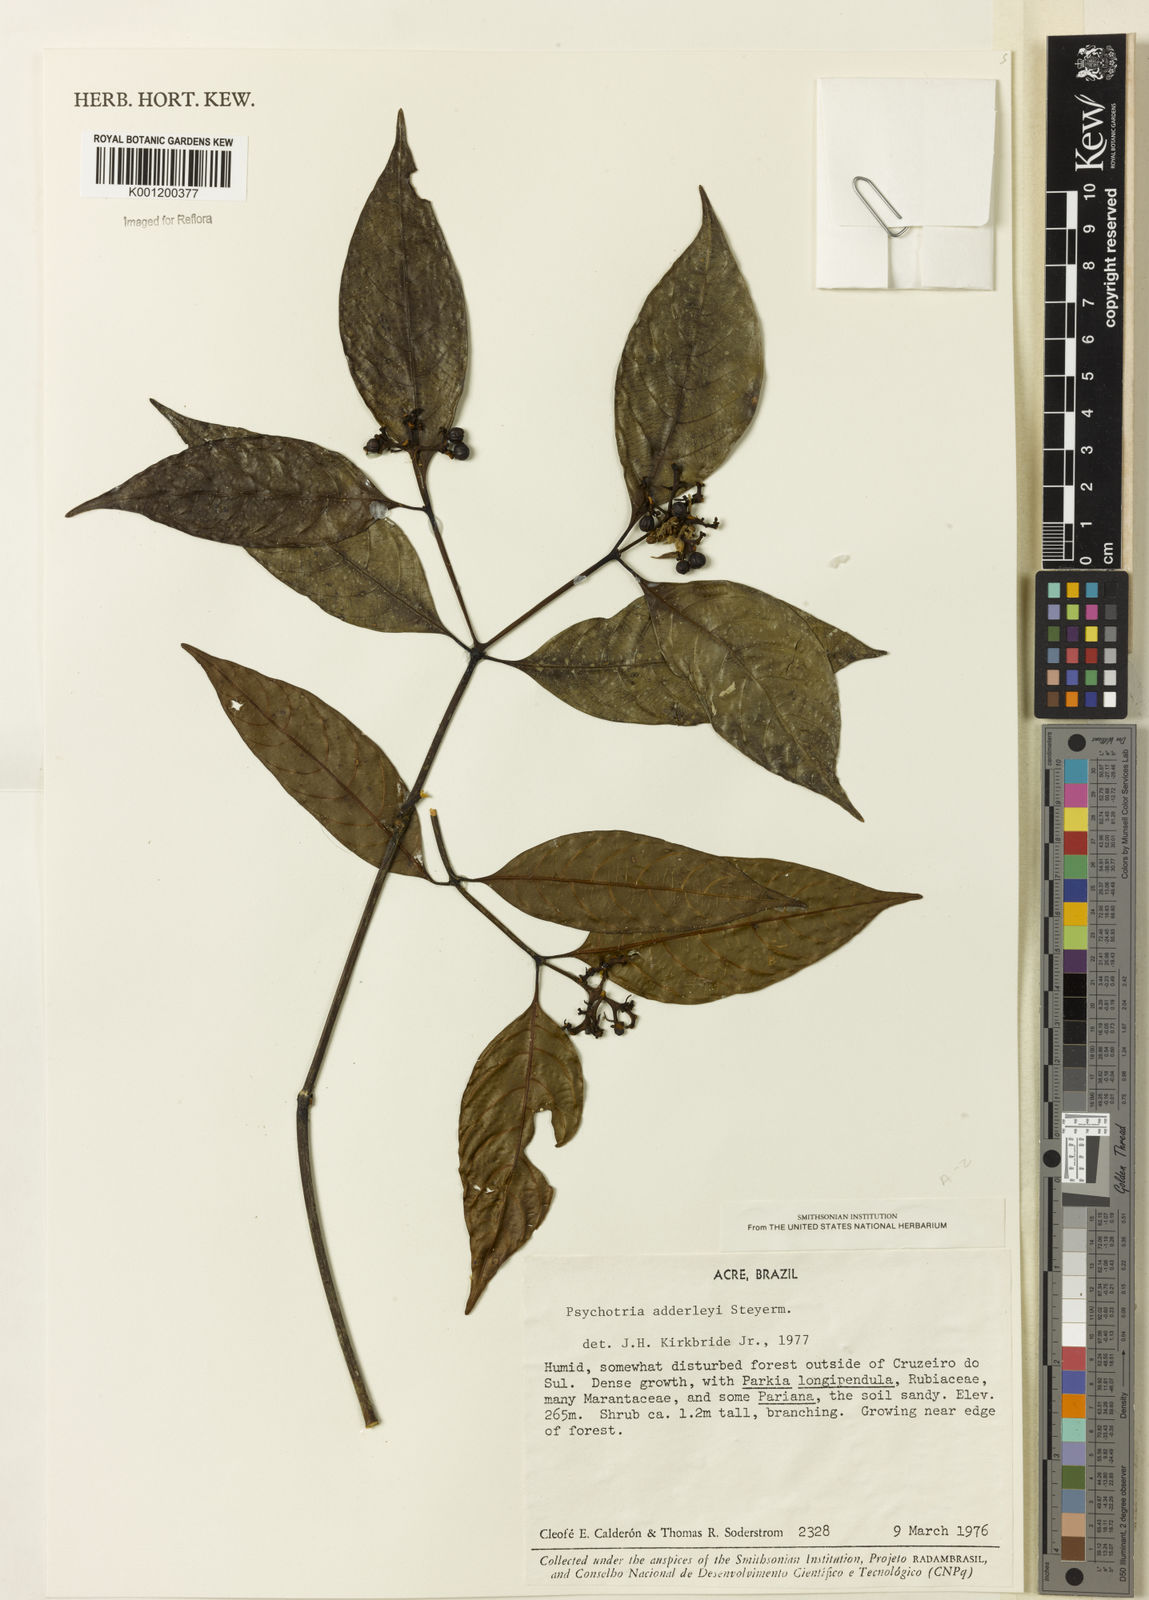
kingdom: Plantae
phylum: Tracheophyta
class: Magnoliopsida
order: Gentianales
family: Rubiaceae
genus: Palicourea
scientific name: Palicourea adderleyi
